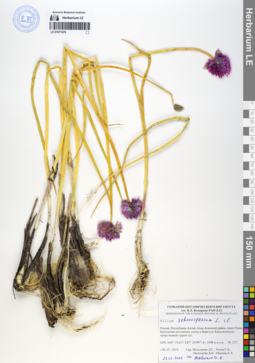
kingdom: Plantae
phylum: Tracheophyta
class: Liliopsida
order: Asparagales
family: Amaryllidaceae
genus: Allium
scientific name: Allium schoenoprasum
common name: Chives
